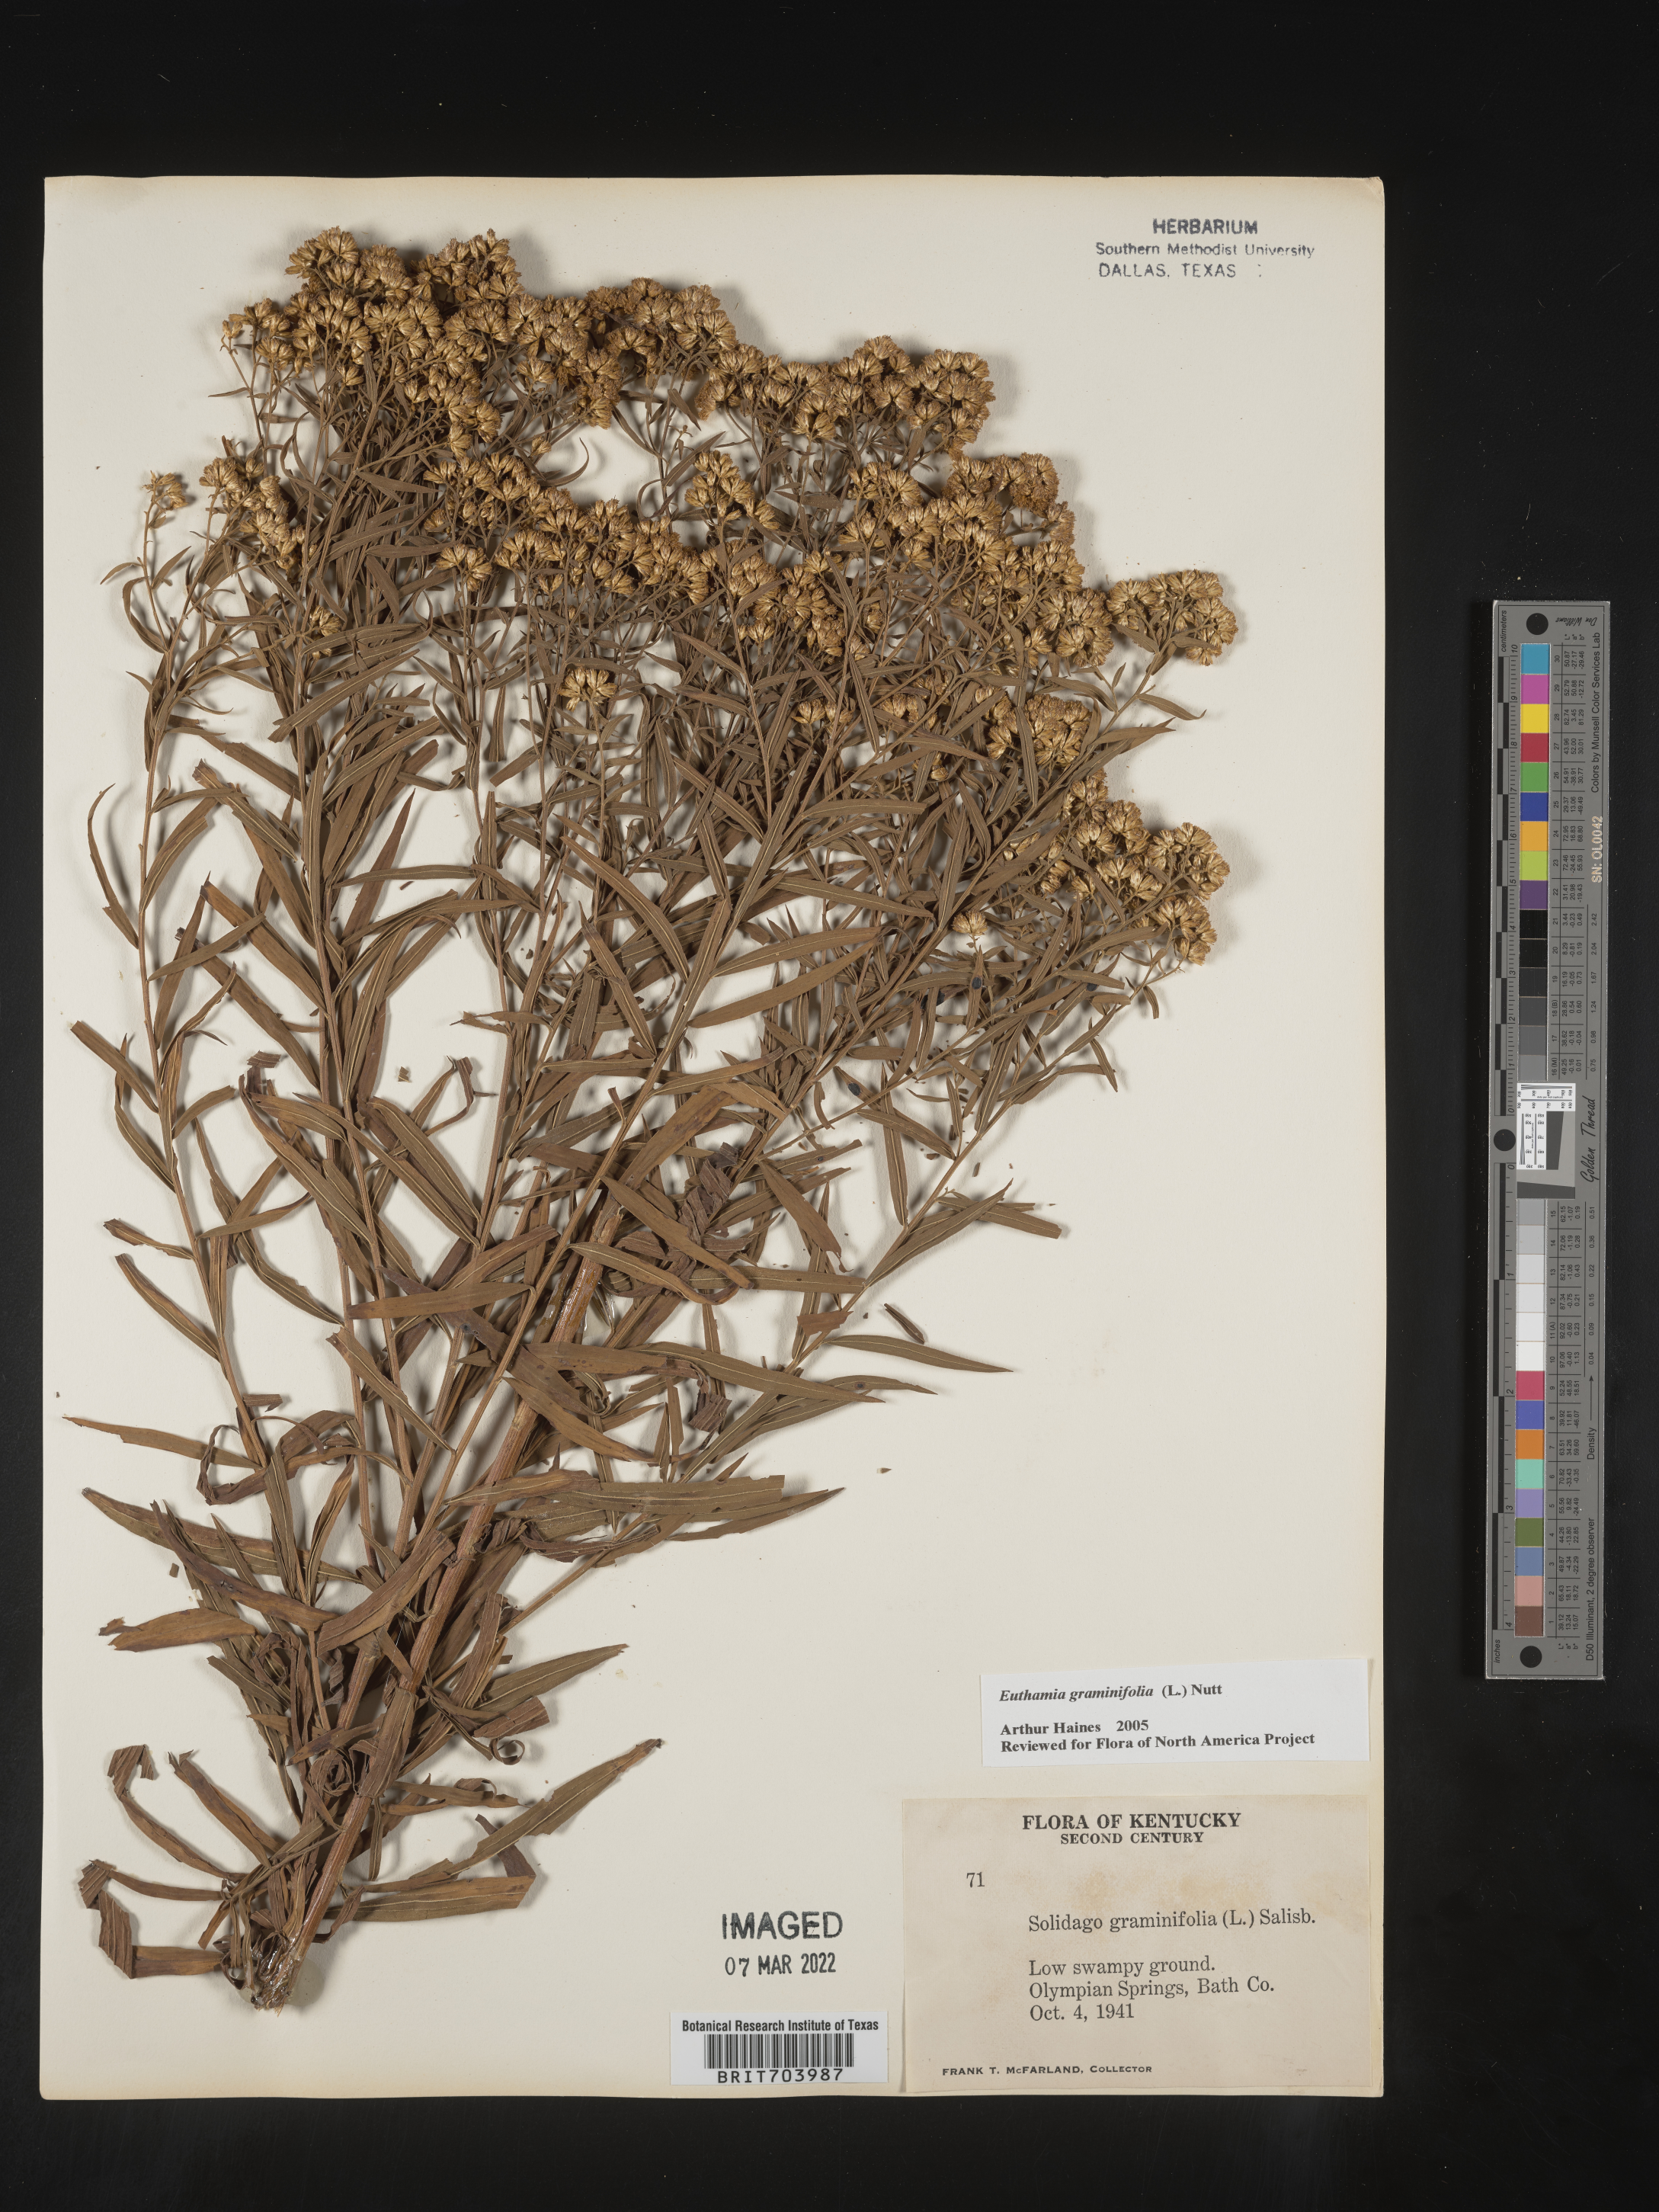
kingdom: Plantae
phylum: Tracheophyta
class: Magnoliopsida
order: Asterales
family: Asteraceae
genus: Euthamia
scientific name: Euthamia graminifolia
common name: Common goldentop
